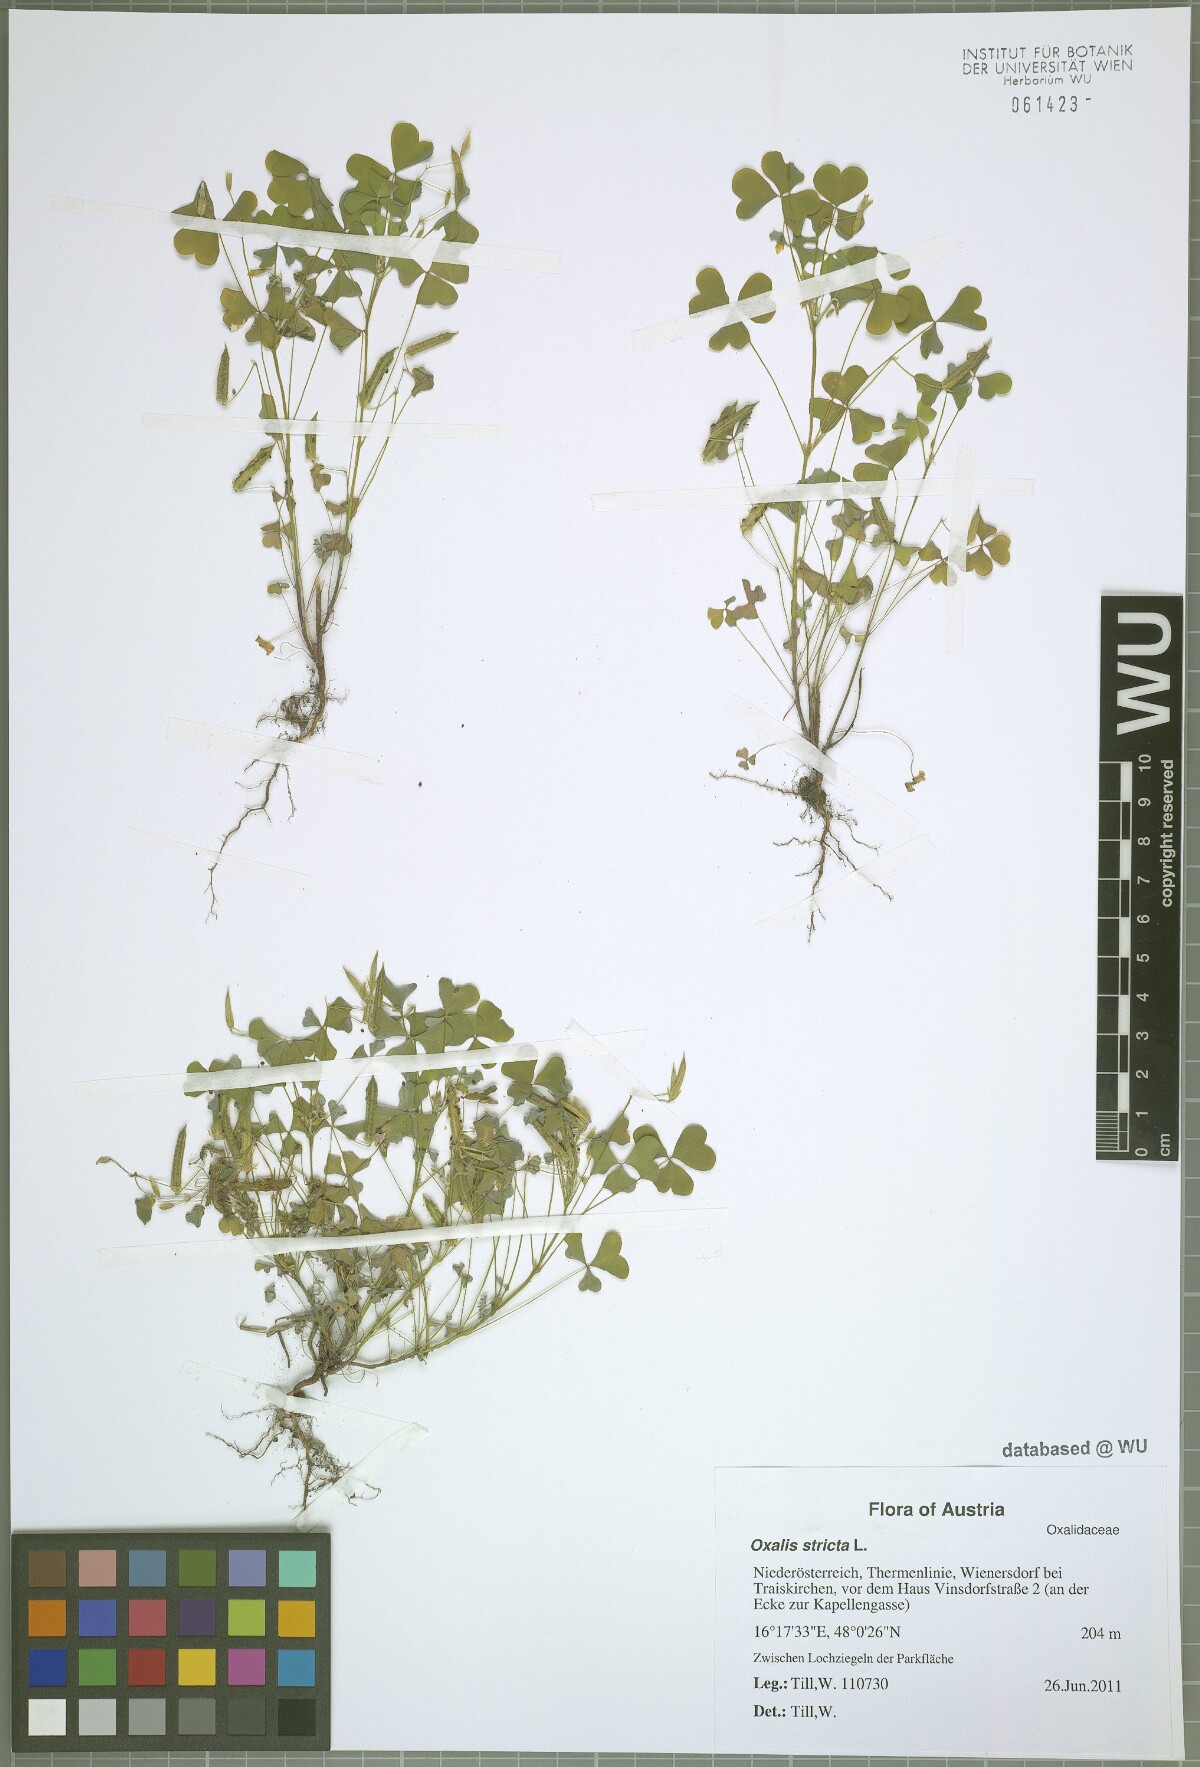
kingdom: Plantae
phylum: Tracheophyta
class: Magnoliopsida
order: Oxalidales
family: Oxalidaceae
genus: Oxalis
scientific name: Oxalis stricta
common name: Upright yellow-sorrel
